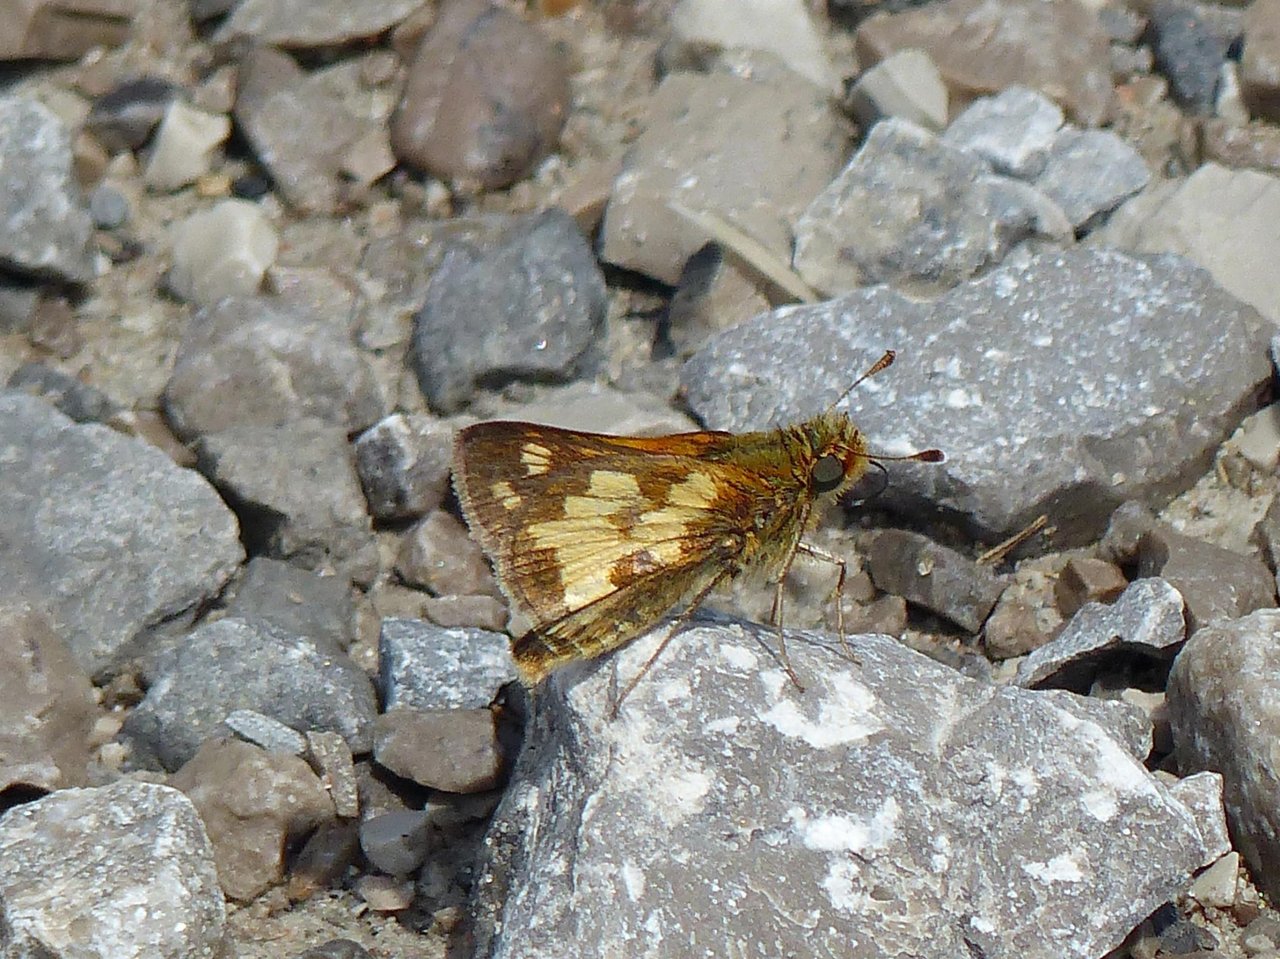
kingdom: Animalia
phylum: Arthropoda
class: Insecta
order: Lepidoptera
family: Hesperiidae
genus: Polites
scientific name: Polites coras
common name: Peck's Skipper
